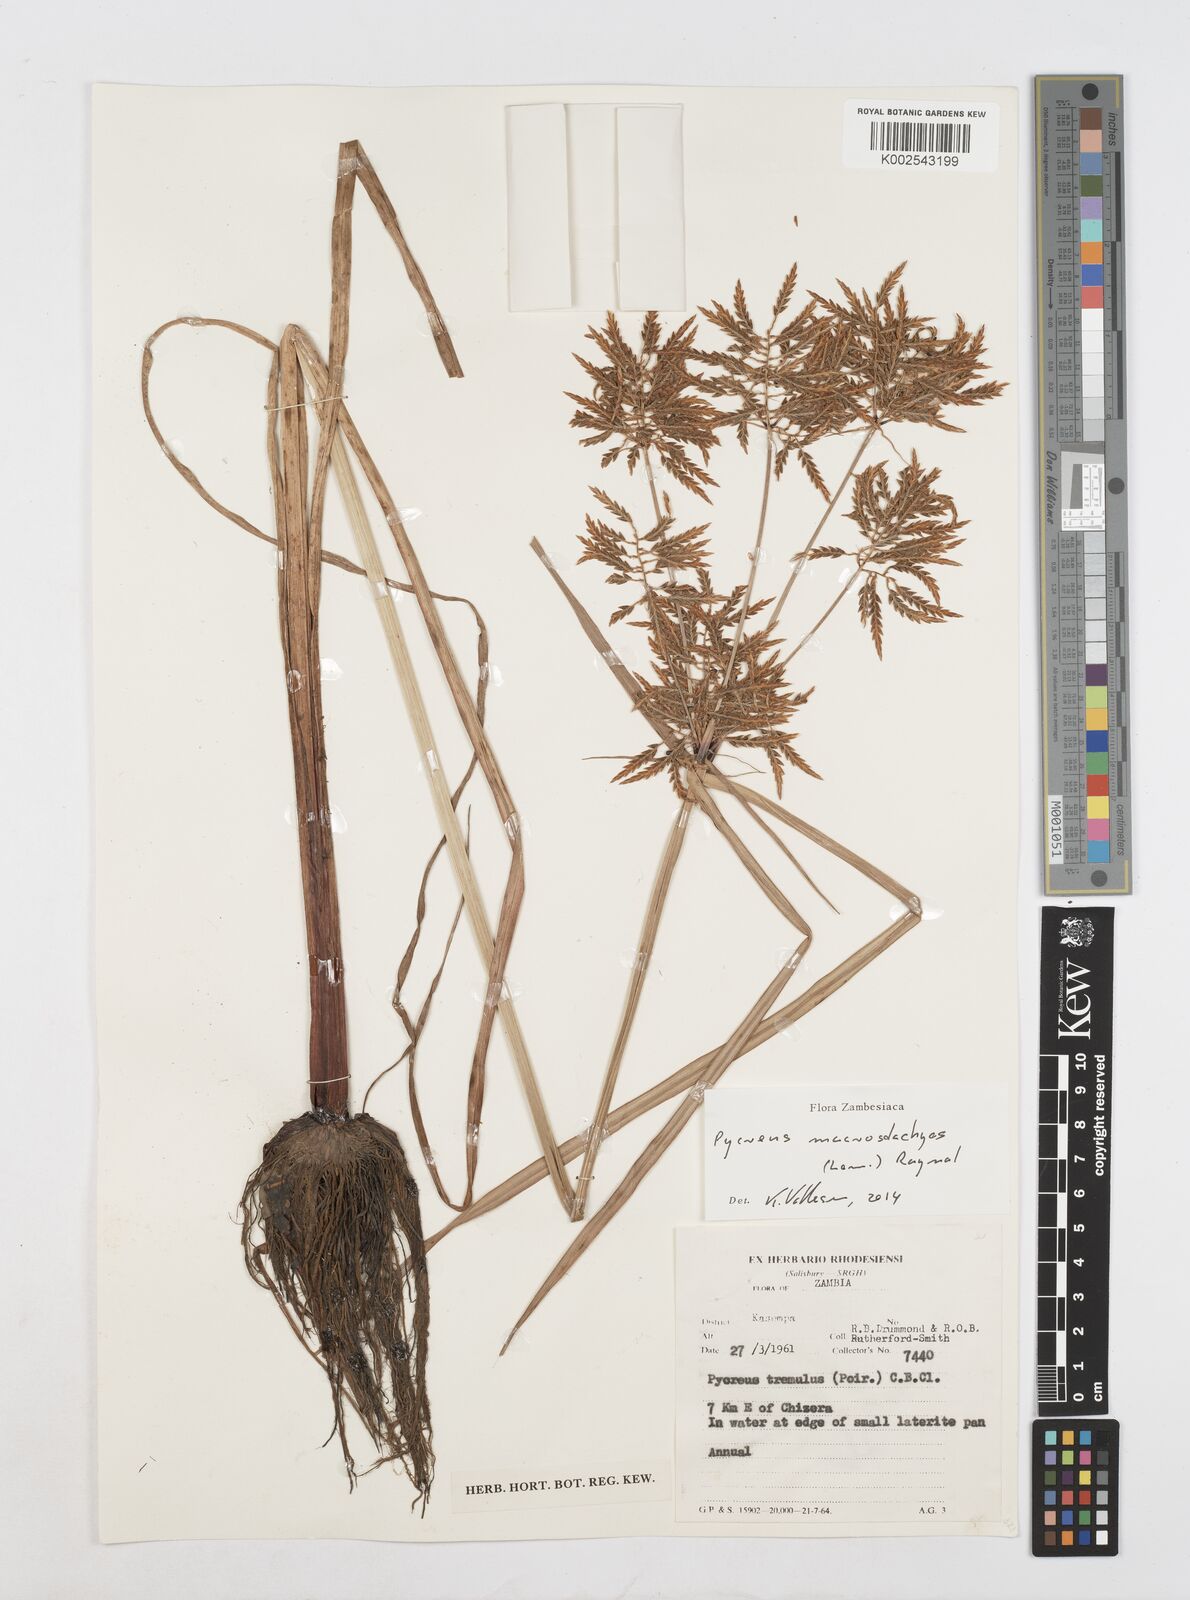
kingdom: Plantae
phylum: Tracheophyta
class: Liliopsida
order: Poales
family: Cyperaceae
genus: Cyperus
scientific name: Cyperus macrostachyos
